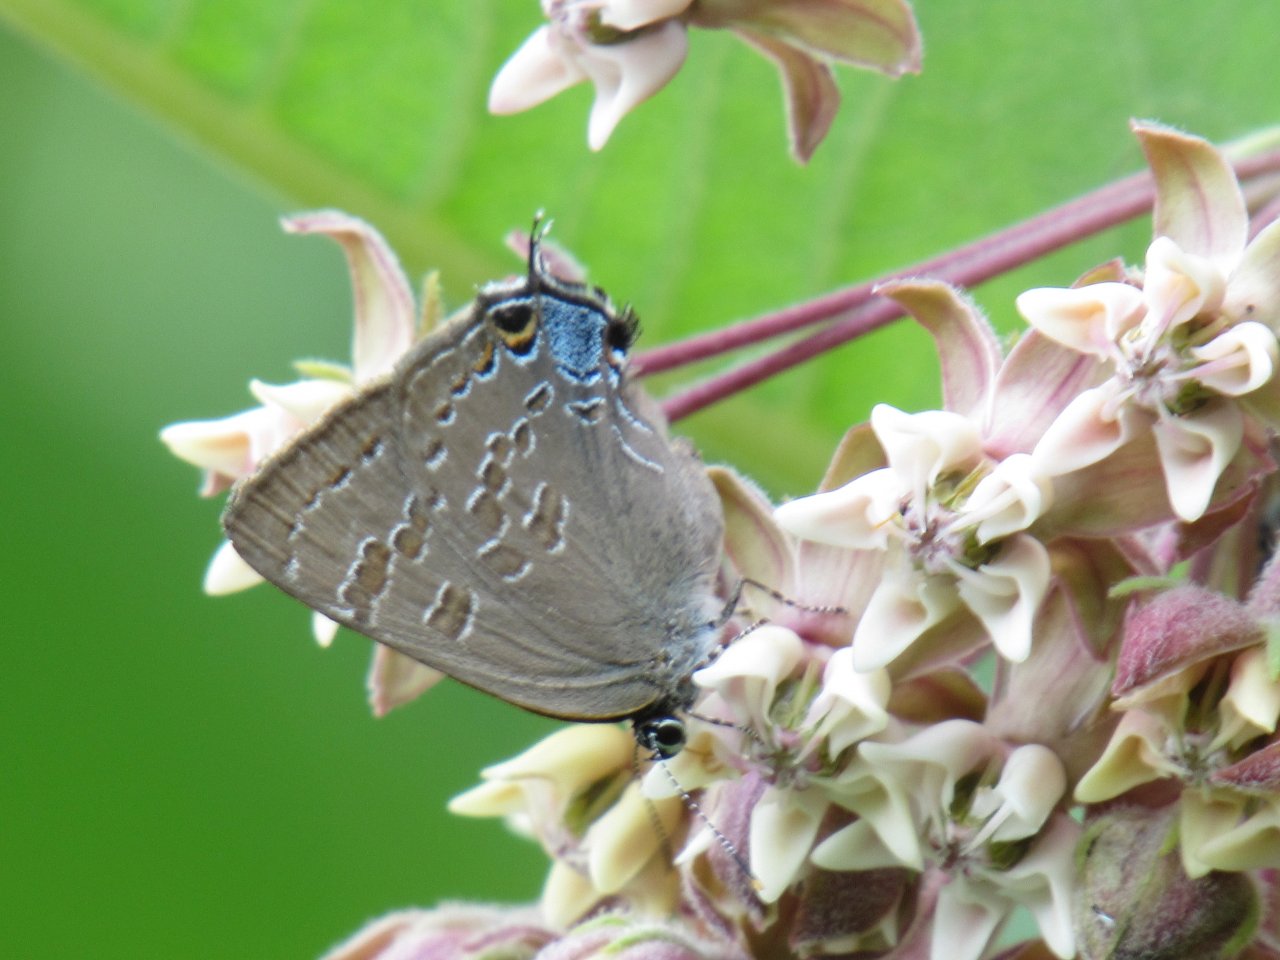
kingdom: Animalia
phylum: Arthropoda
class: Insecta
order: Lepidoptera
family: Lycaenidae
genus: Strymon
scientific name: Strymon caryaevorus
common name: Hickory Hairstreak
